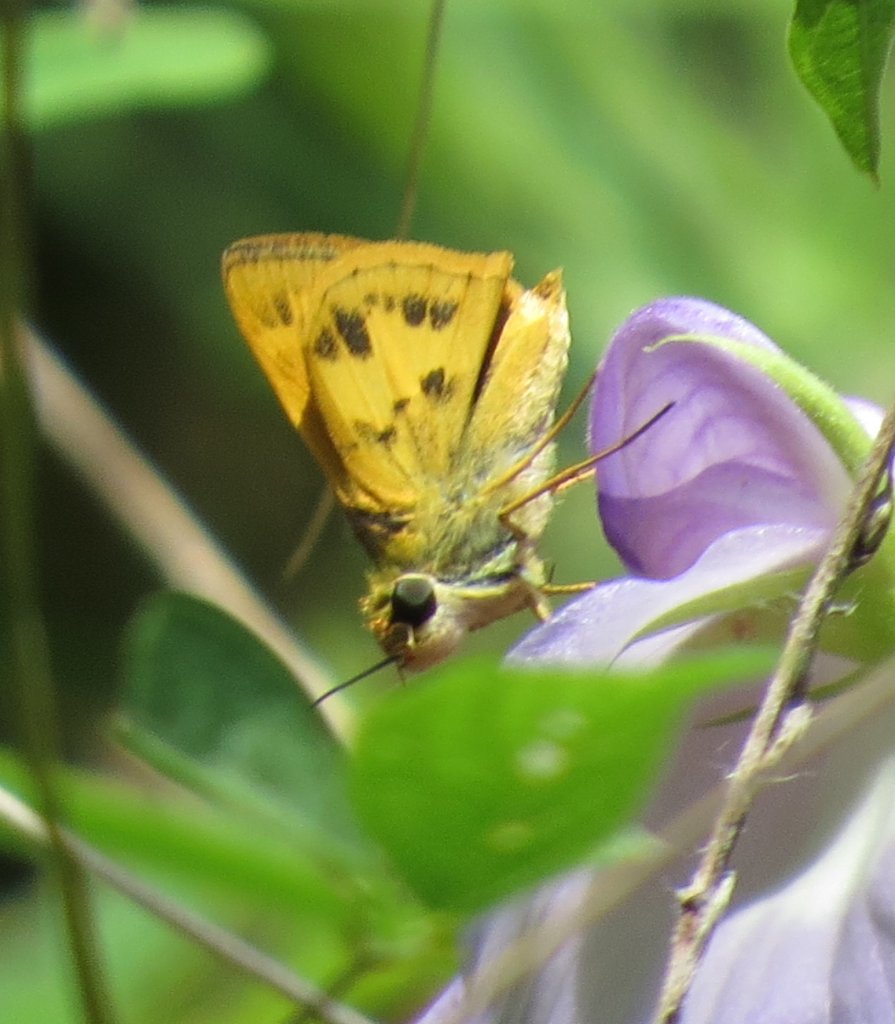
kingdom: Animalia
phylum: Arthropoda
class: Insecta
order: Lepidoptera
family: Hesperiidae
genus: Polites
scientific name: Polites vibex
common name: Whirlabout
